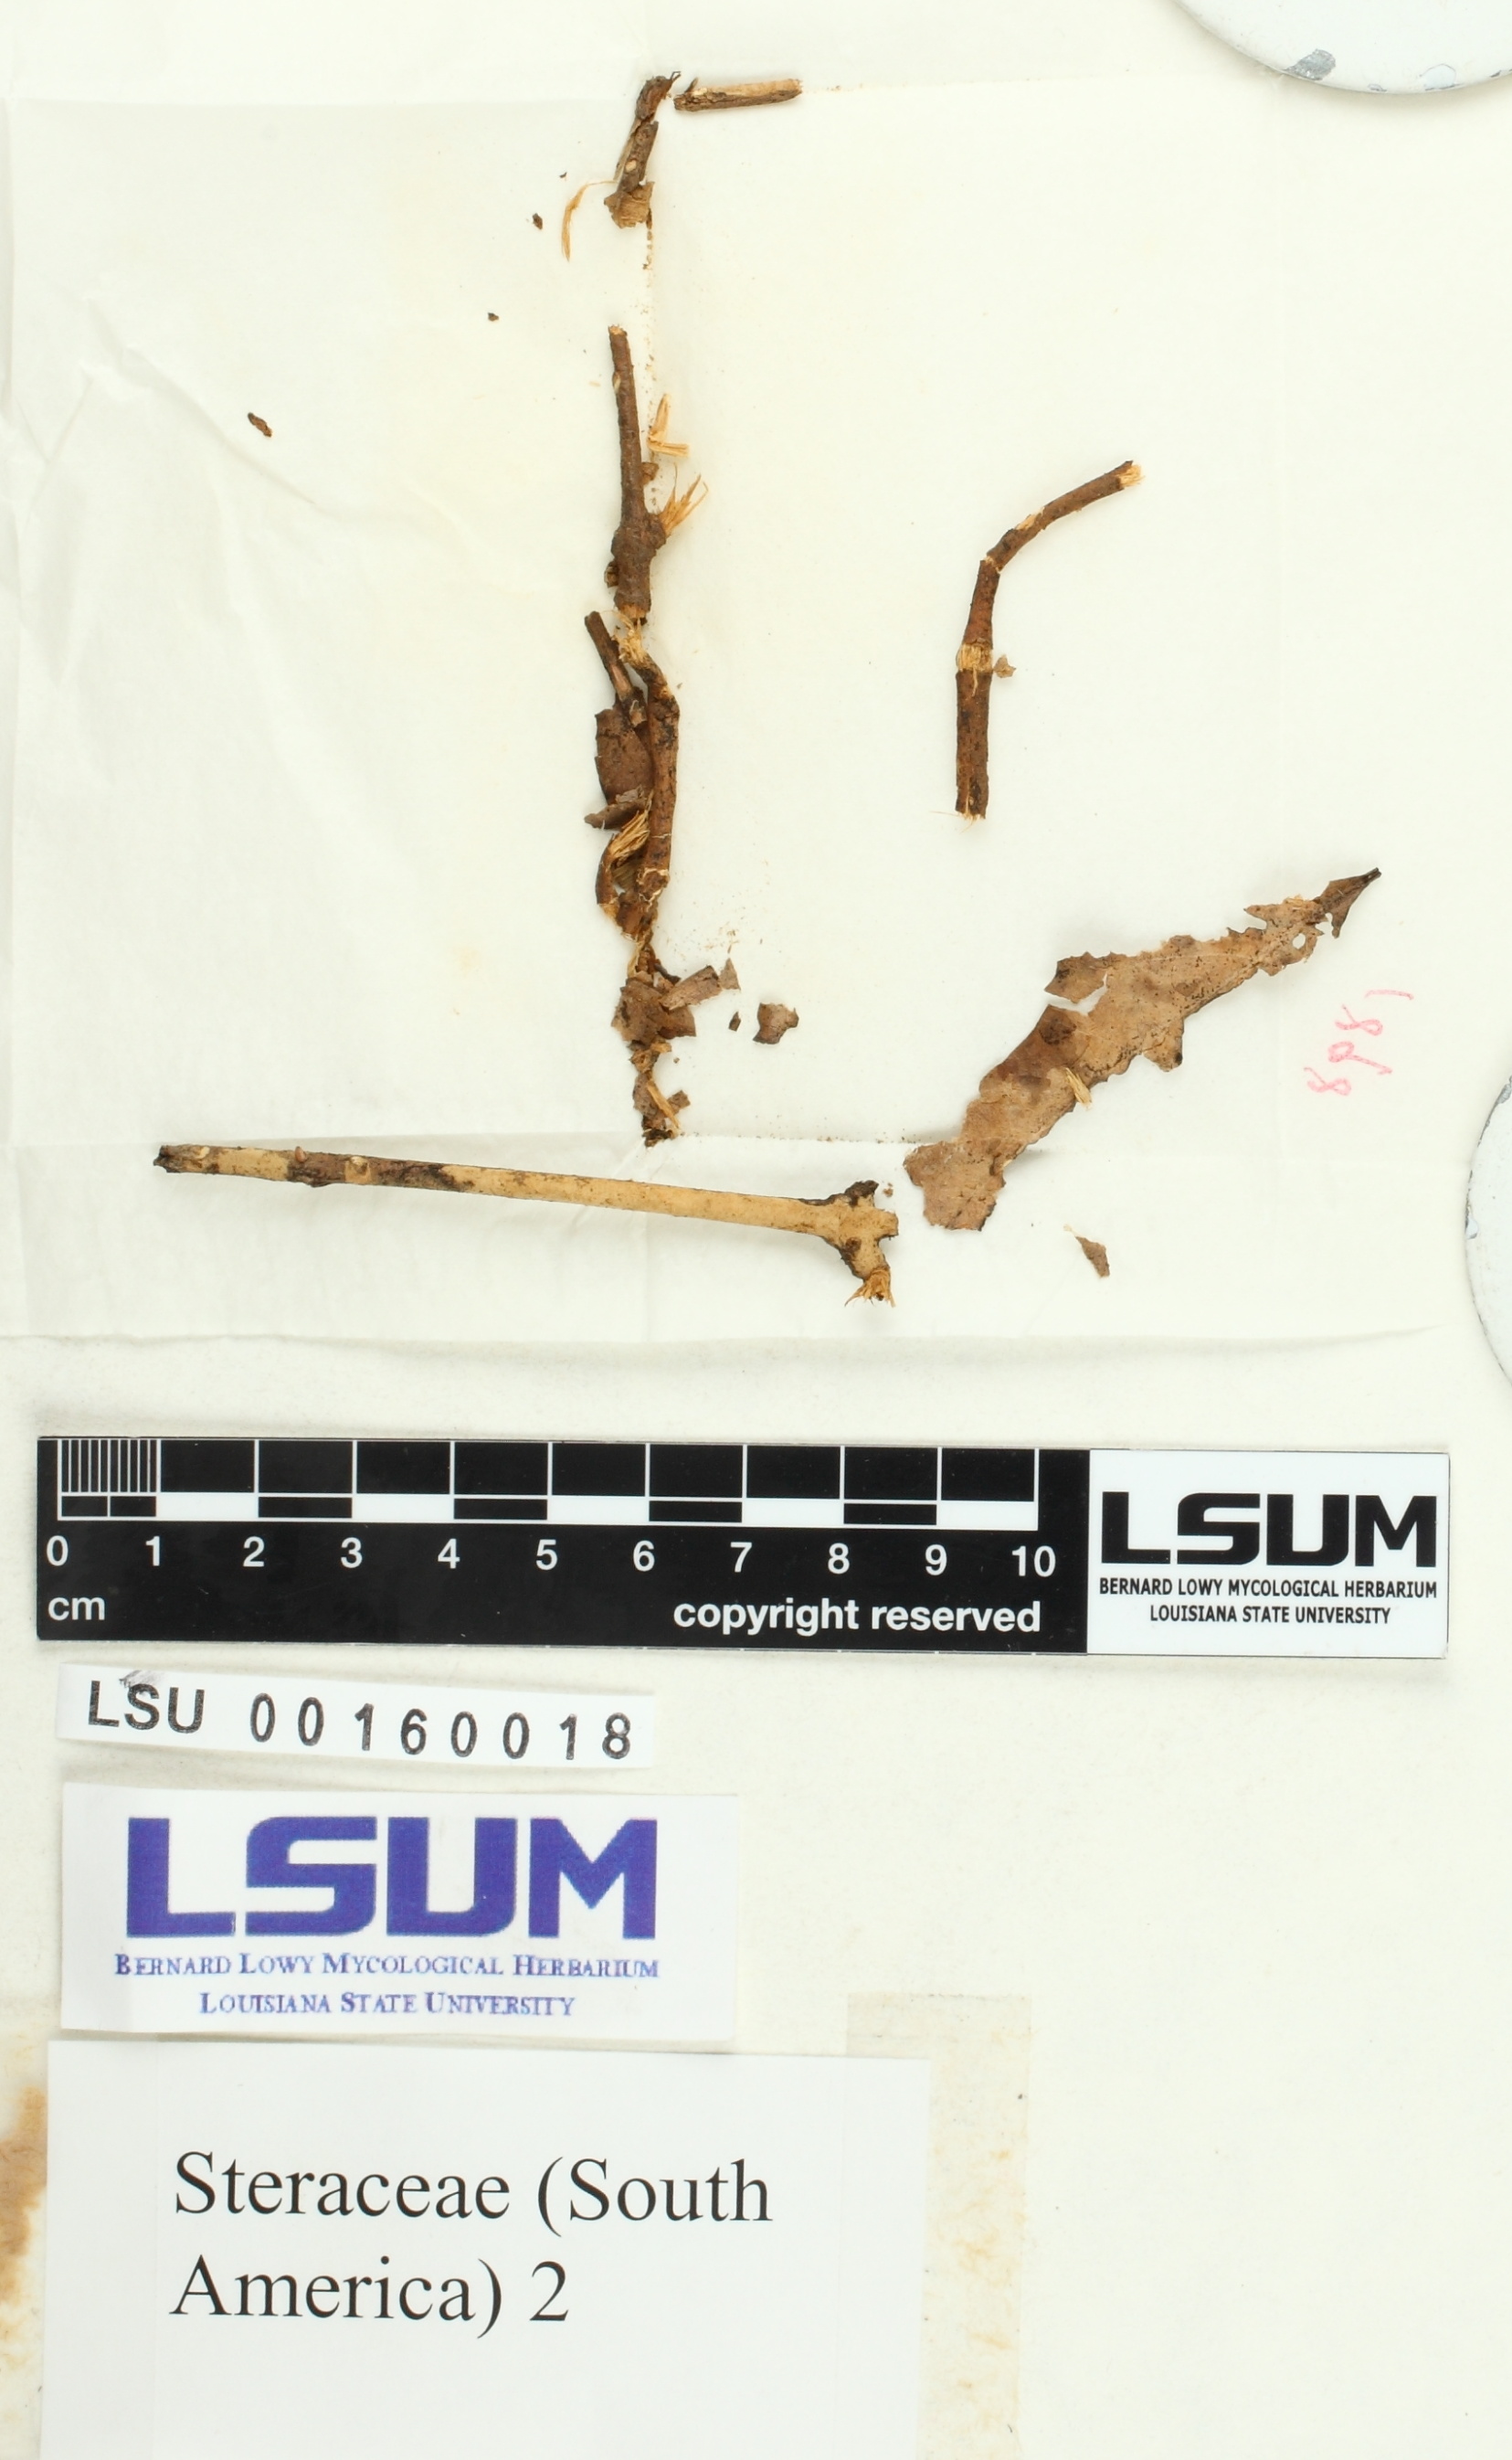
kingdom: Fungi
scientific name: Fungi
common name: Fungi
